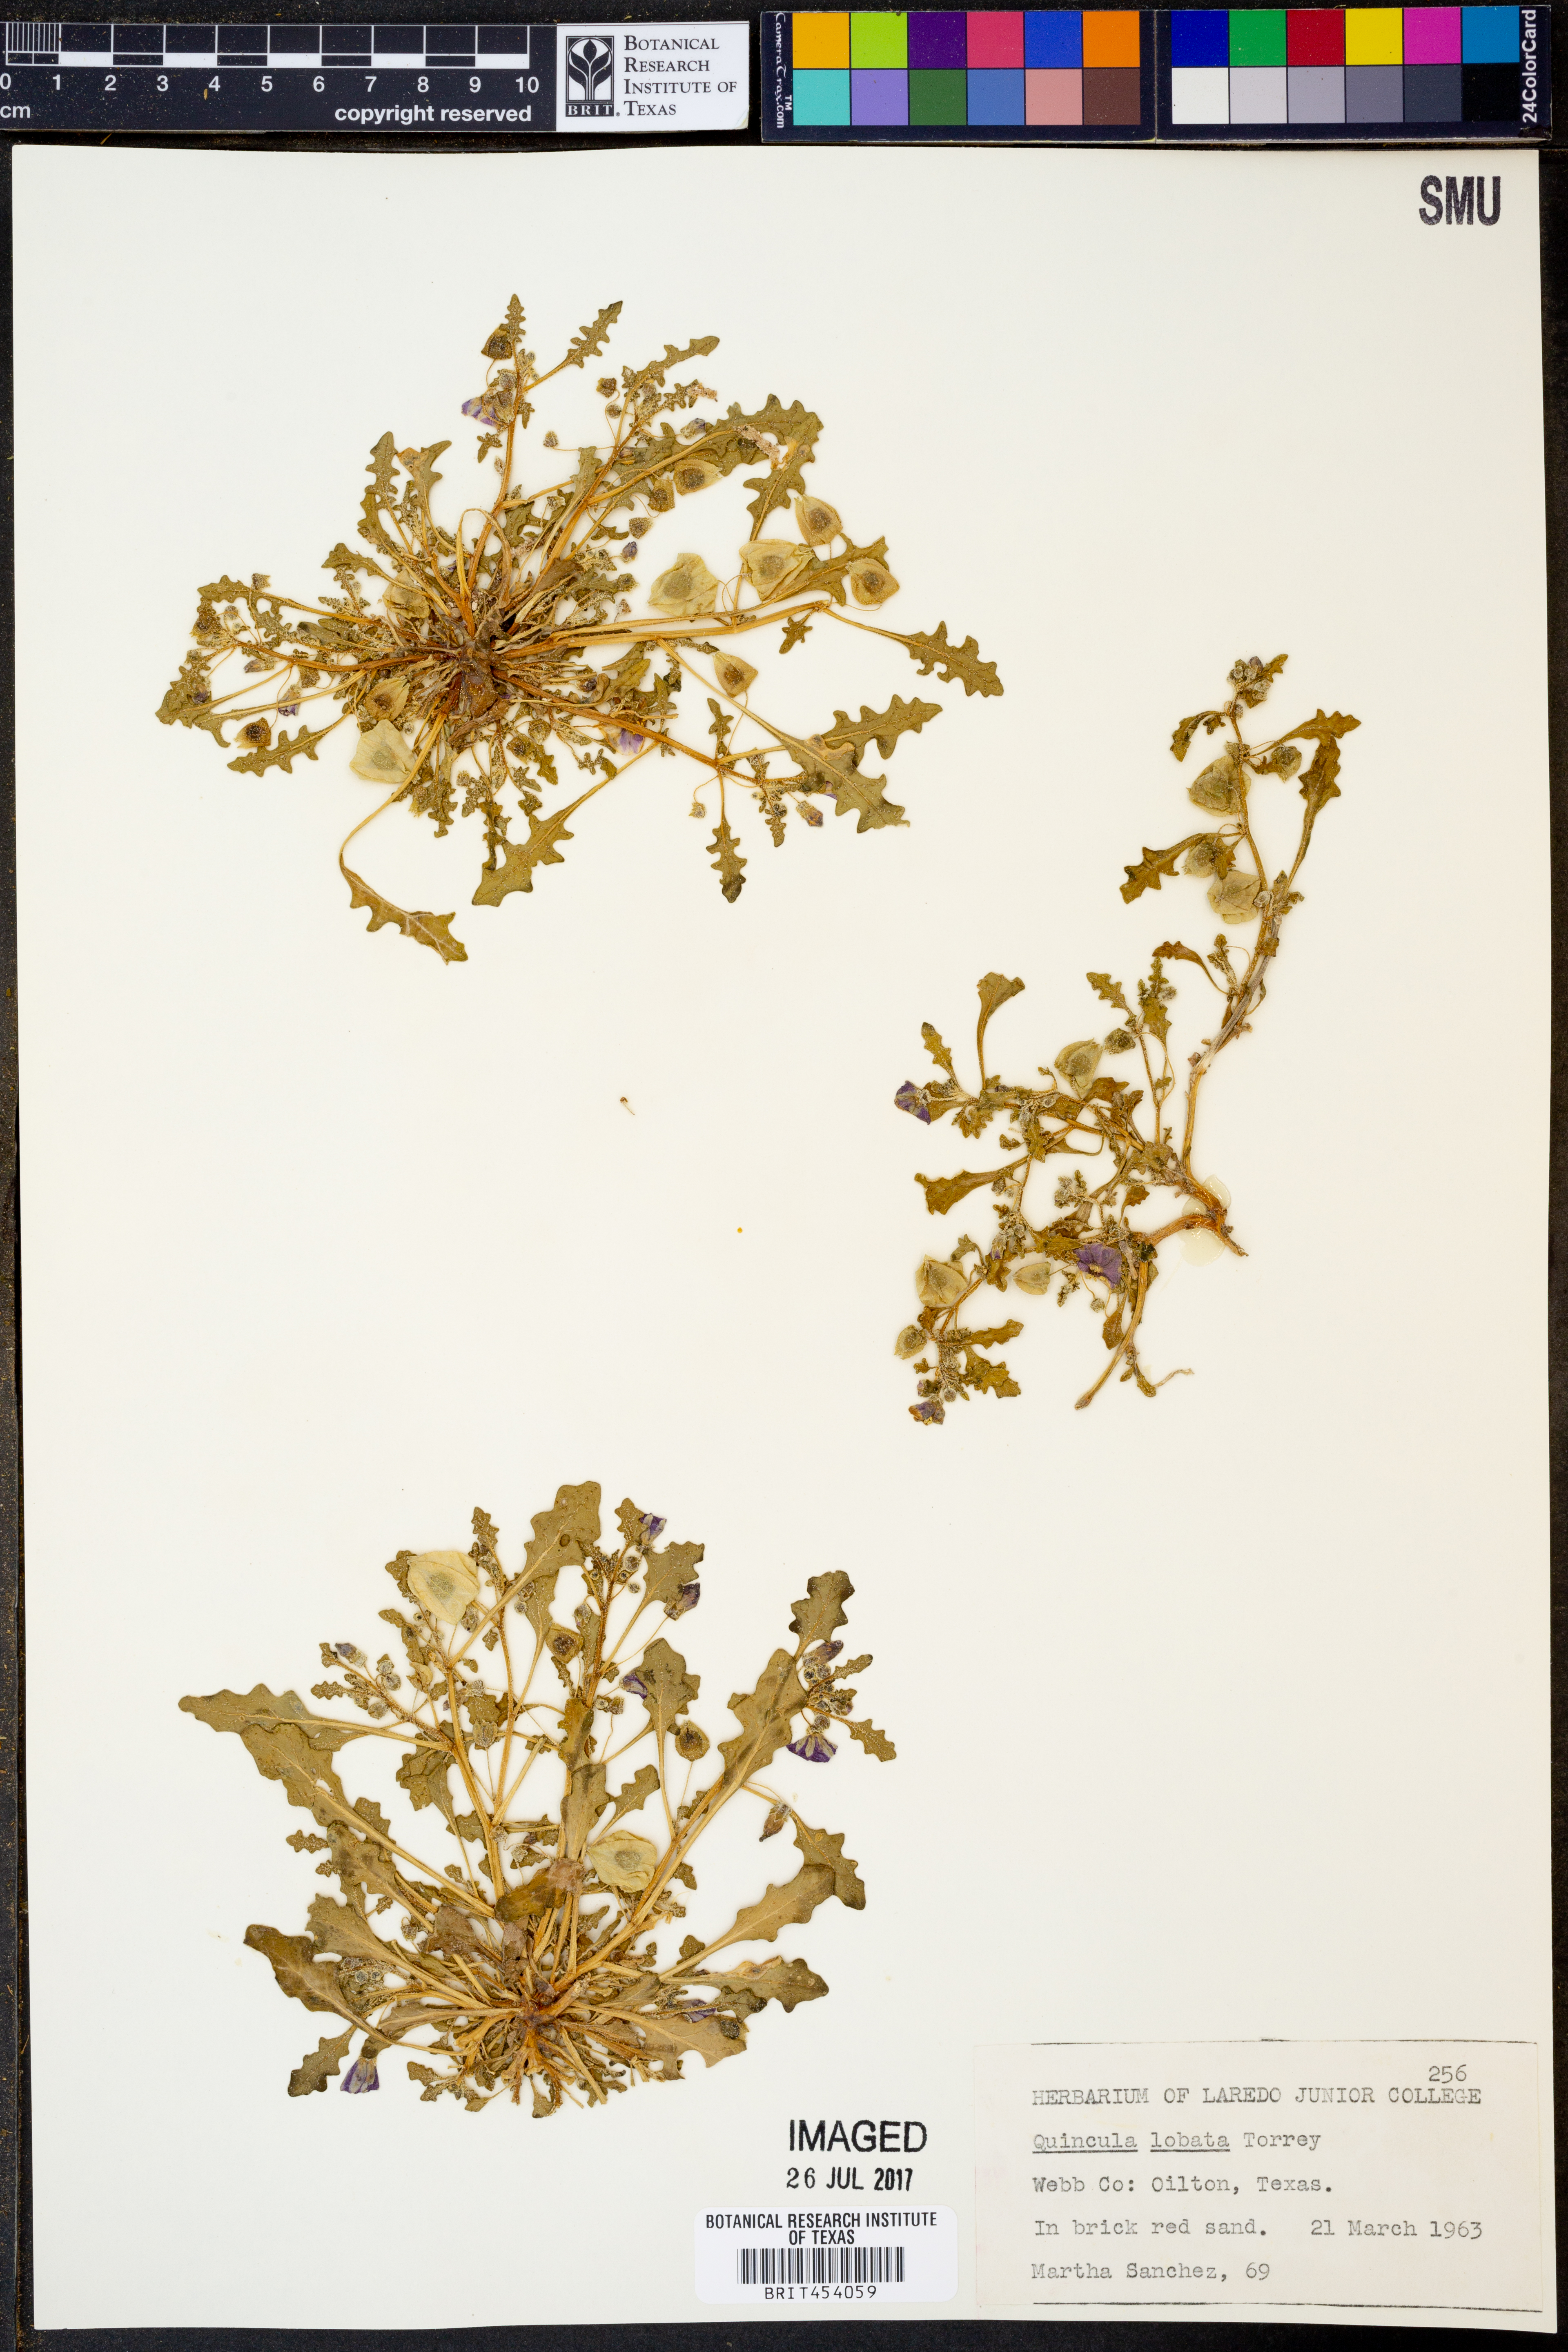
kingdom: Plantae
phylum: Tracheophyta
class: Magnoliopsida
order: Solanales
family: Solanaceae
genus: Quincula
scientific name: Quincula lobata
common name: Purple-ground-cherry
